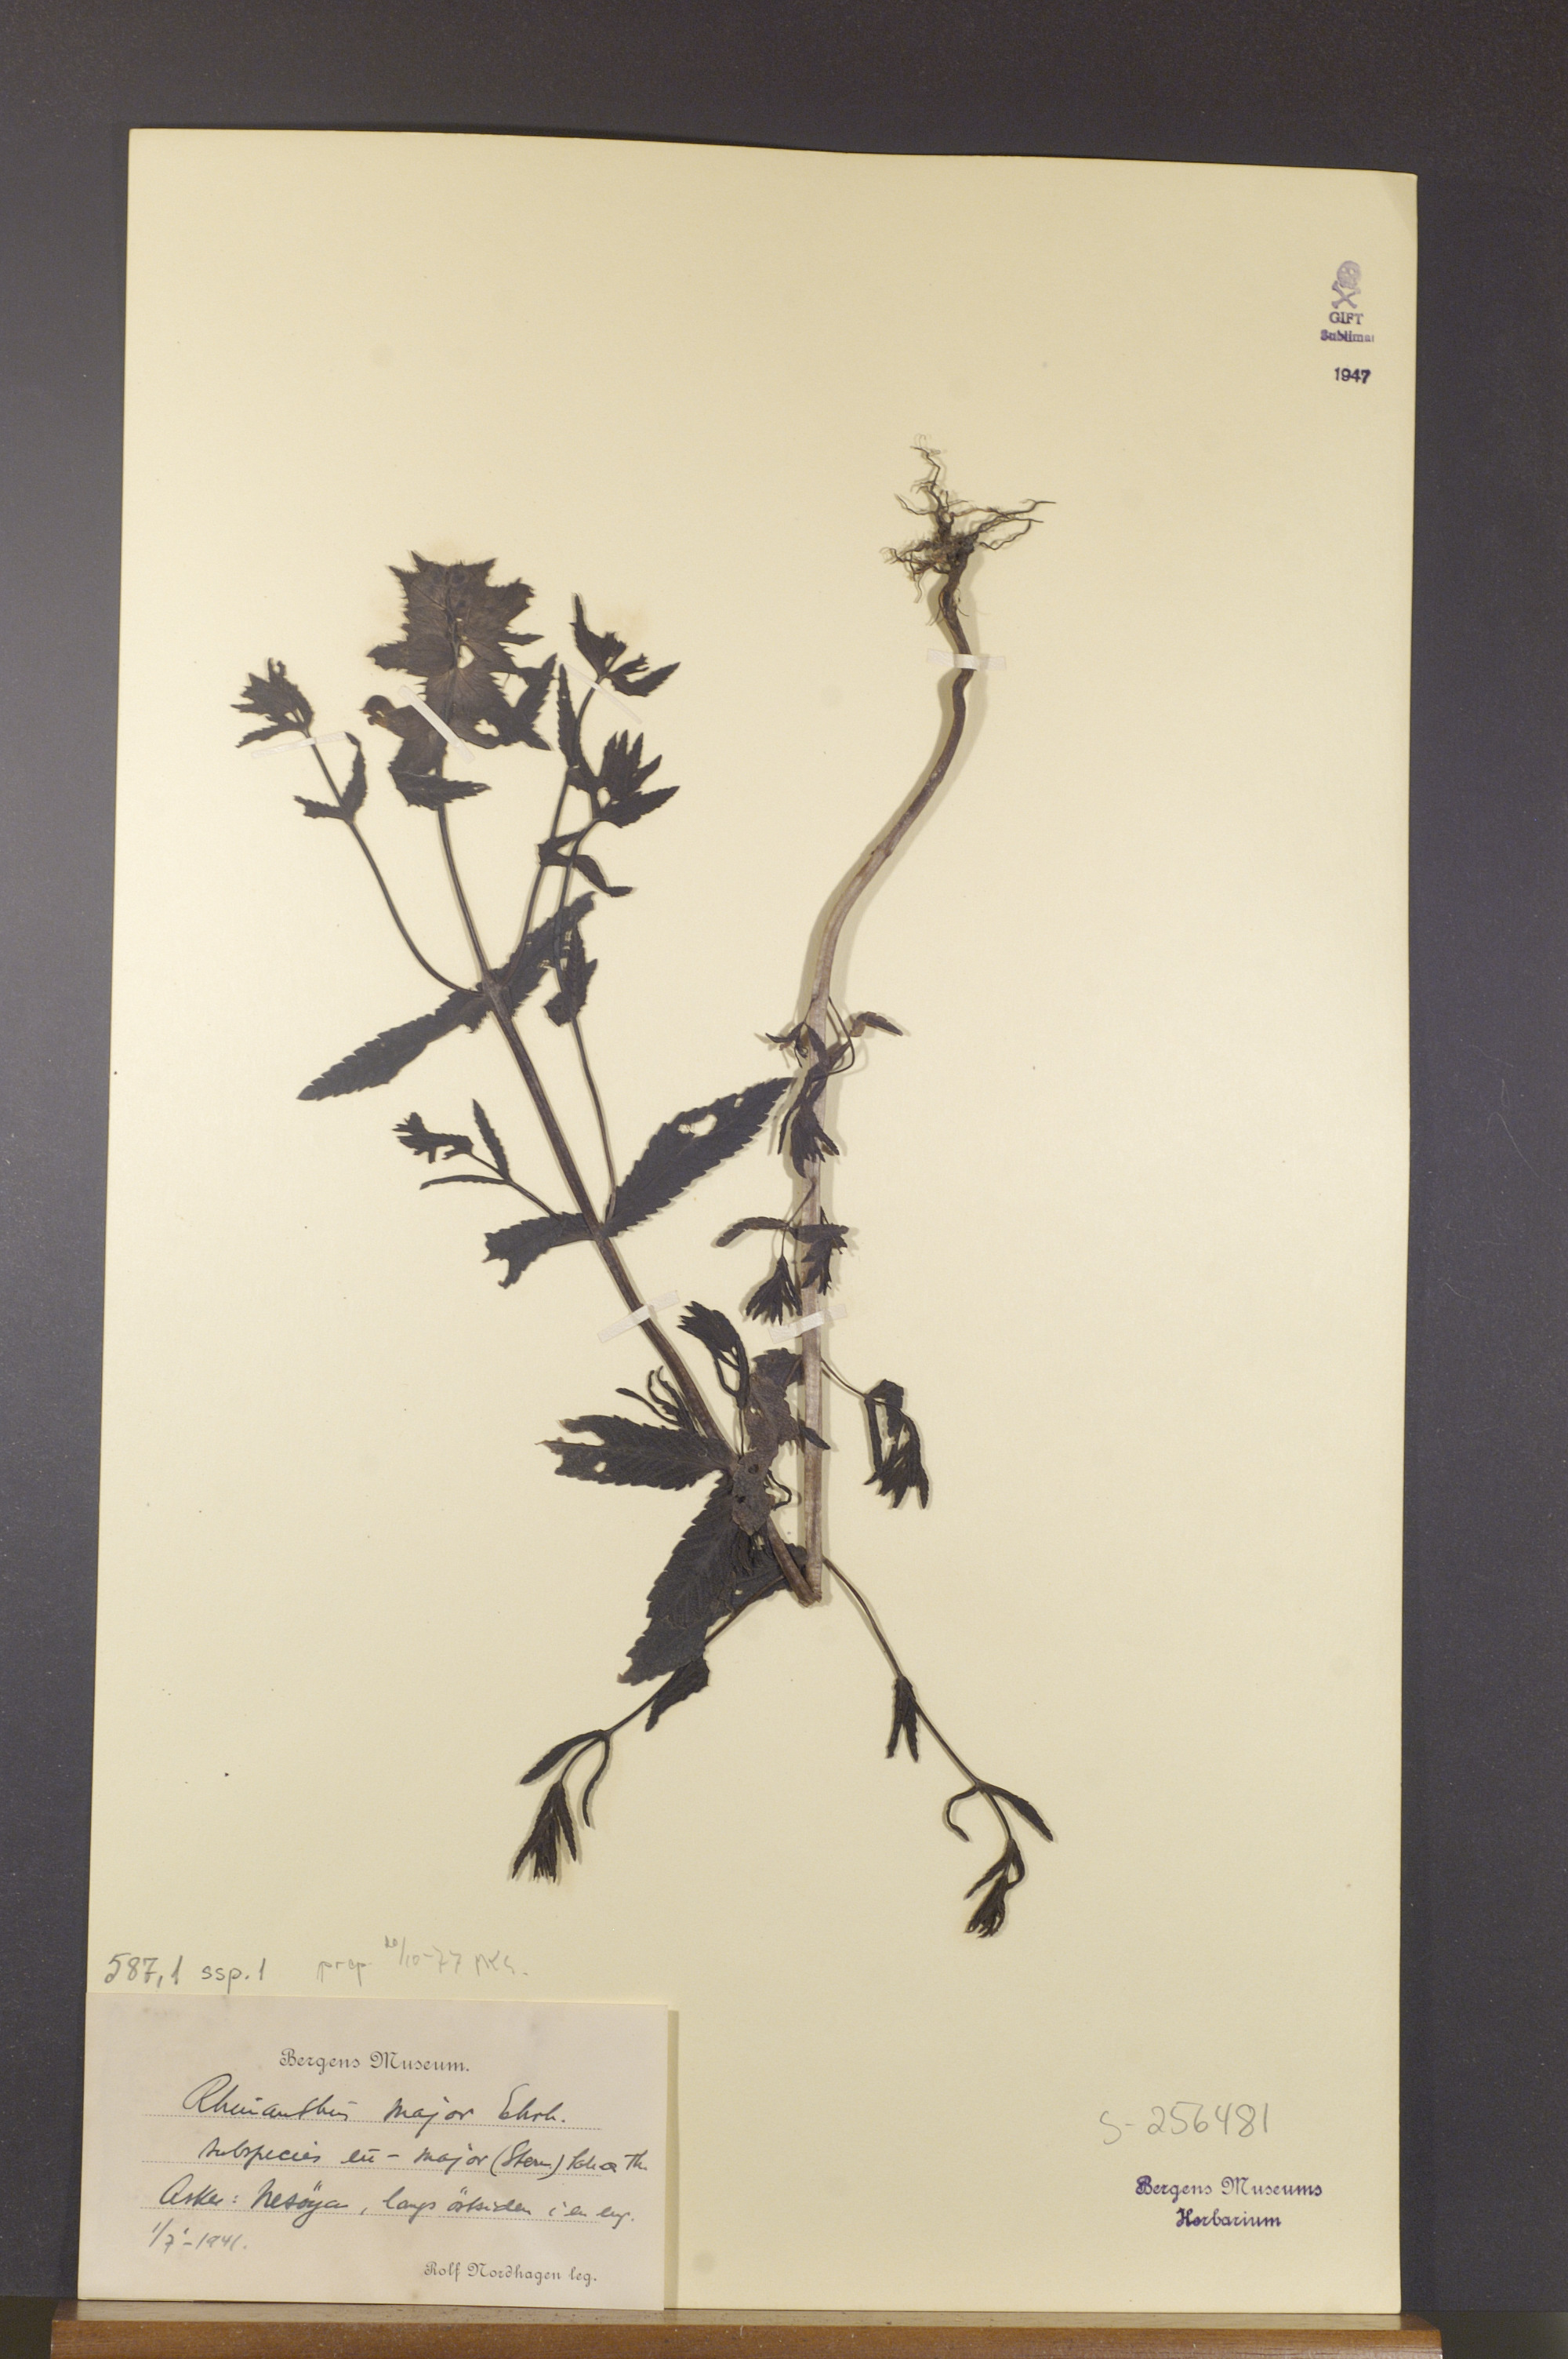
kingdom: Plantae
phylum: Tracheophyta
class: Magnoliopsida
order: Lamiales
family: Orobanchaceae
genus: Rhinanthus
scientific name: Rhinanthus serotinus
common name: Late-flowering yellow rattle
